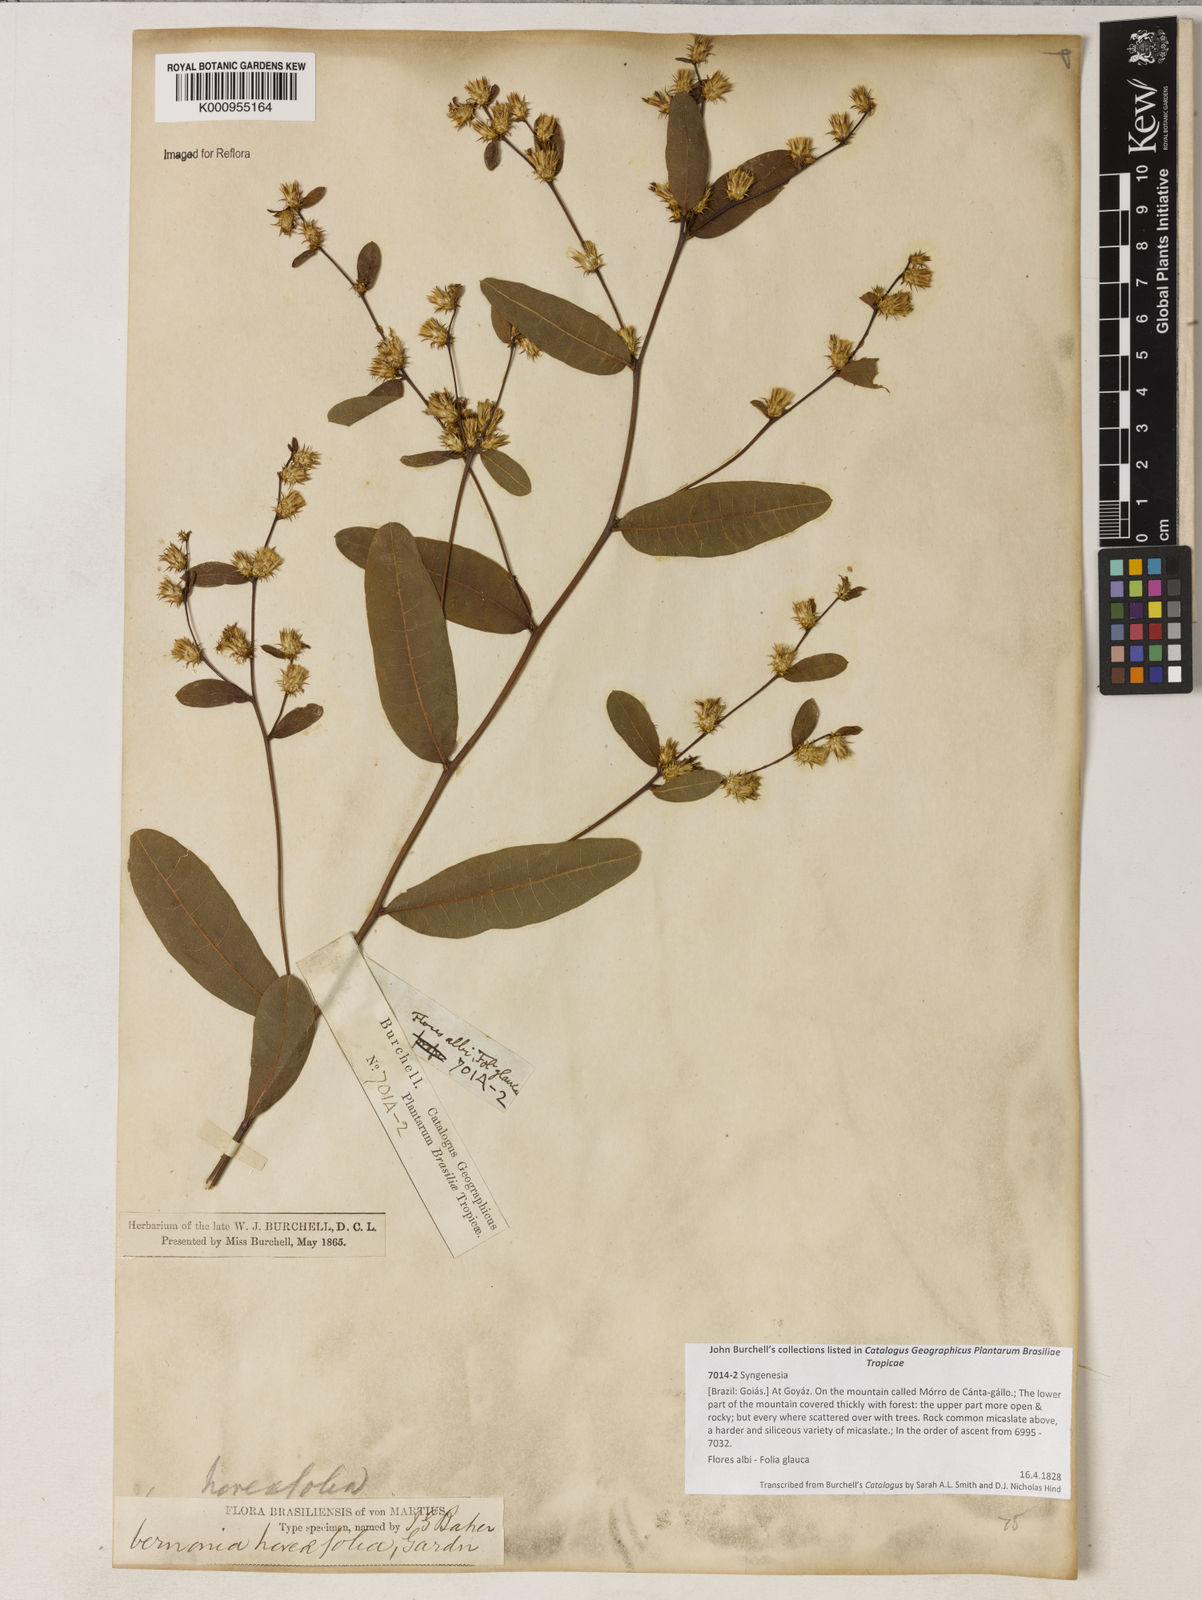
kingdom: Plantae
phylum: Tracheophyta
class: Magnoliopsida
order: Asterales
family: Asteraceae
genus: Lessingianthus
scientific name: Lessingianthus hoveifolius
